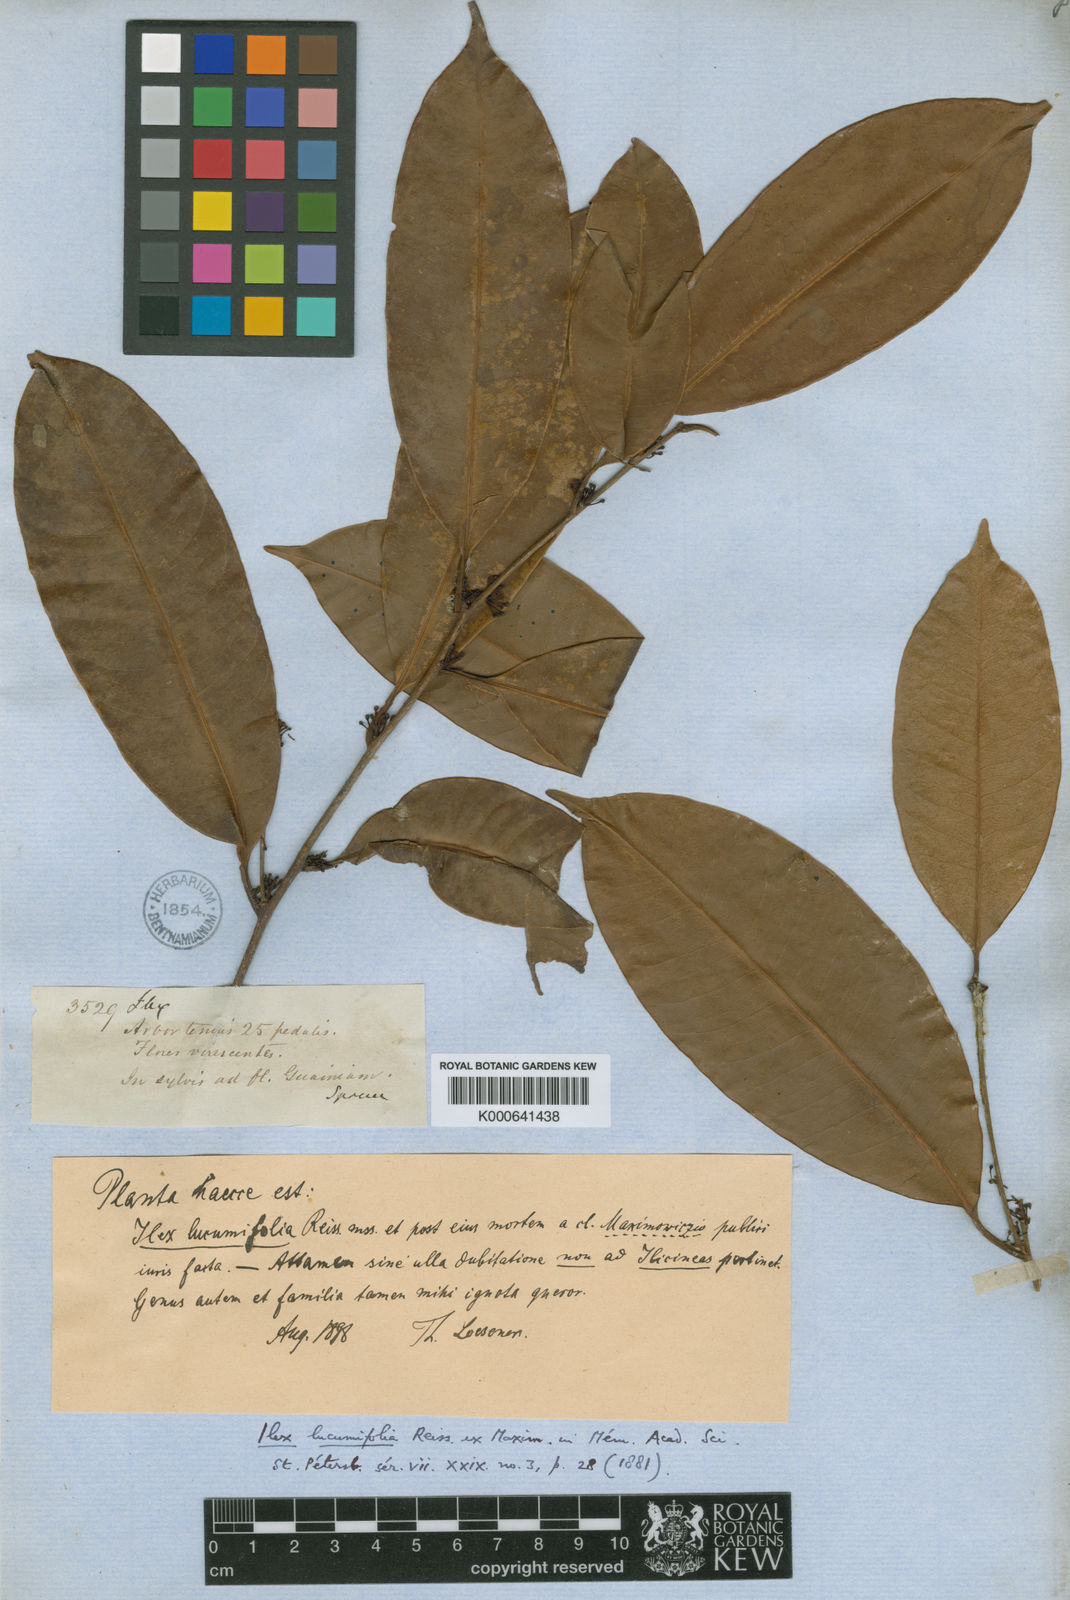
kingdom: Plantae
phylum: Tracheophyta
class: Magnoliopsida
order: Ericales
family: Sapotaceae
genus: Pouteria
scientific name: Pouteria lucumifolia
